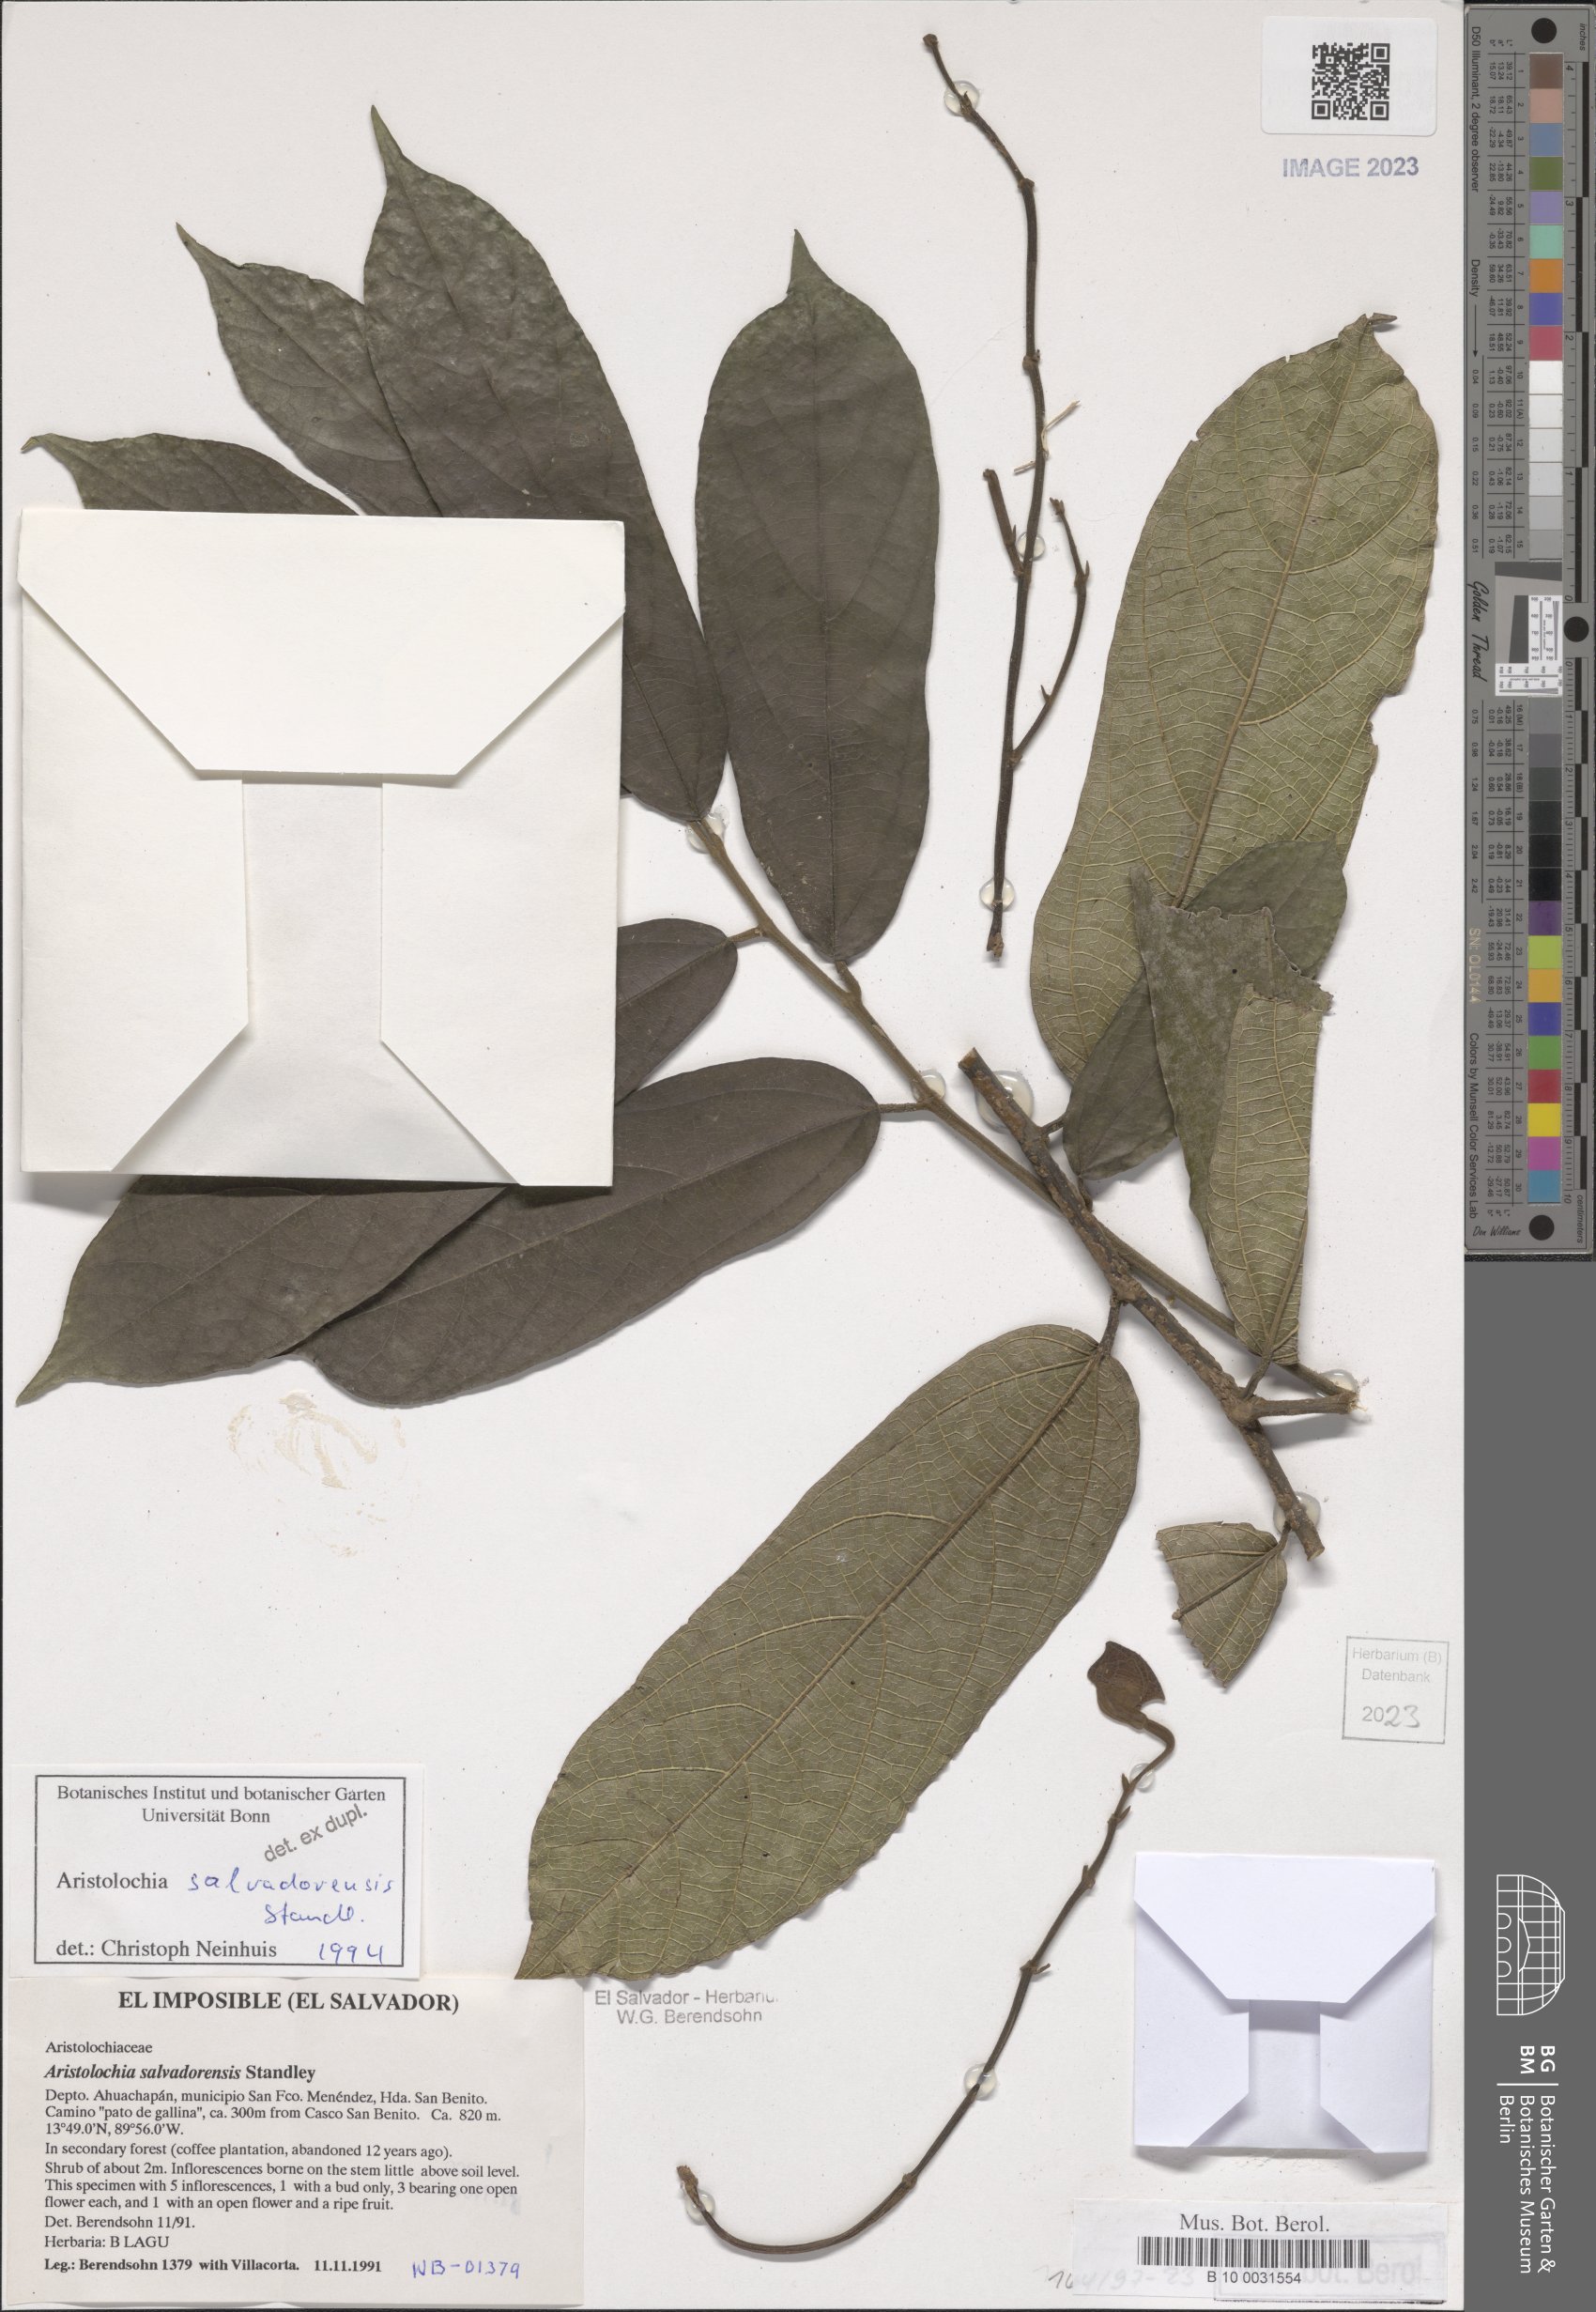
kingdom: Plantae
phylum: Tracheophyta
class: Magnoliopsida
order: Piperales
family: Aristolochiaceae
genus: Isotrema
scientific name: Isotrema arborea
